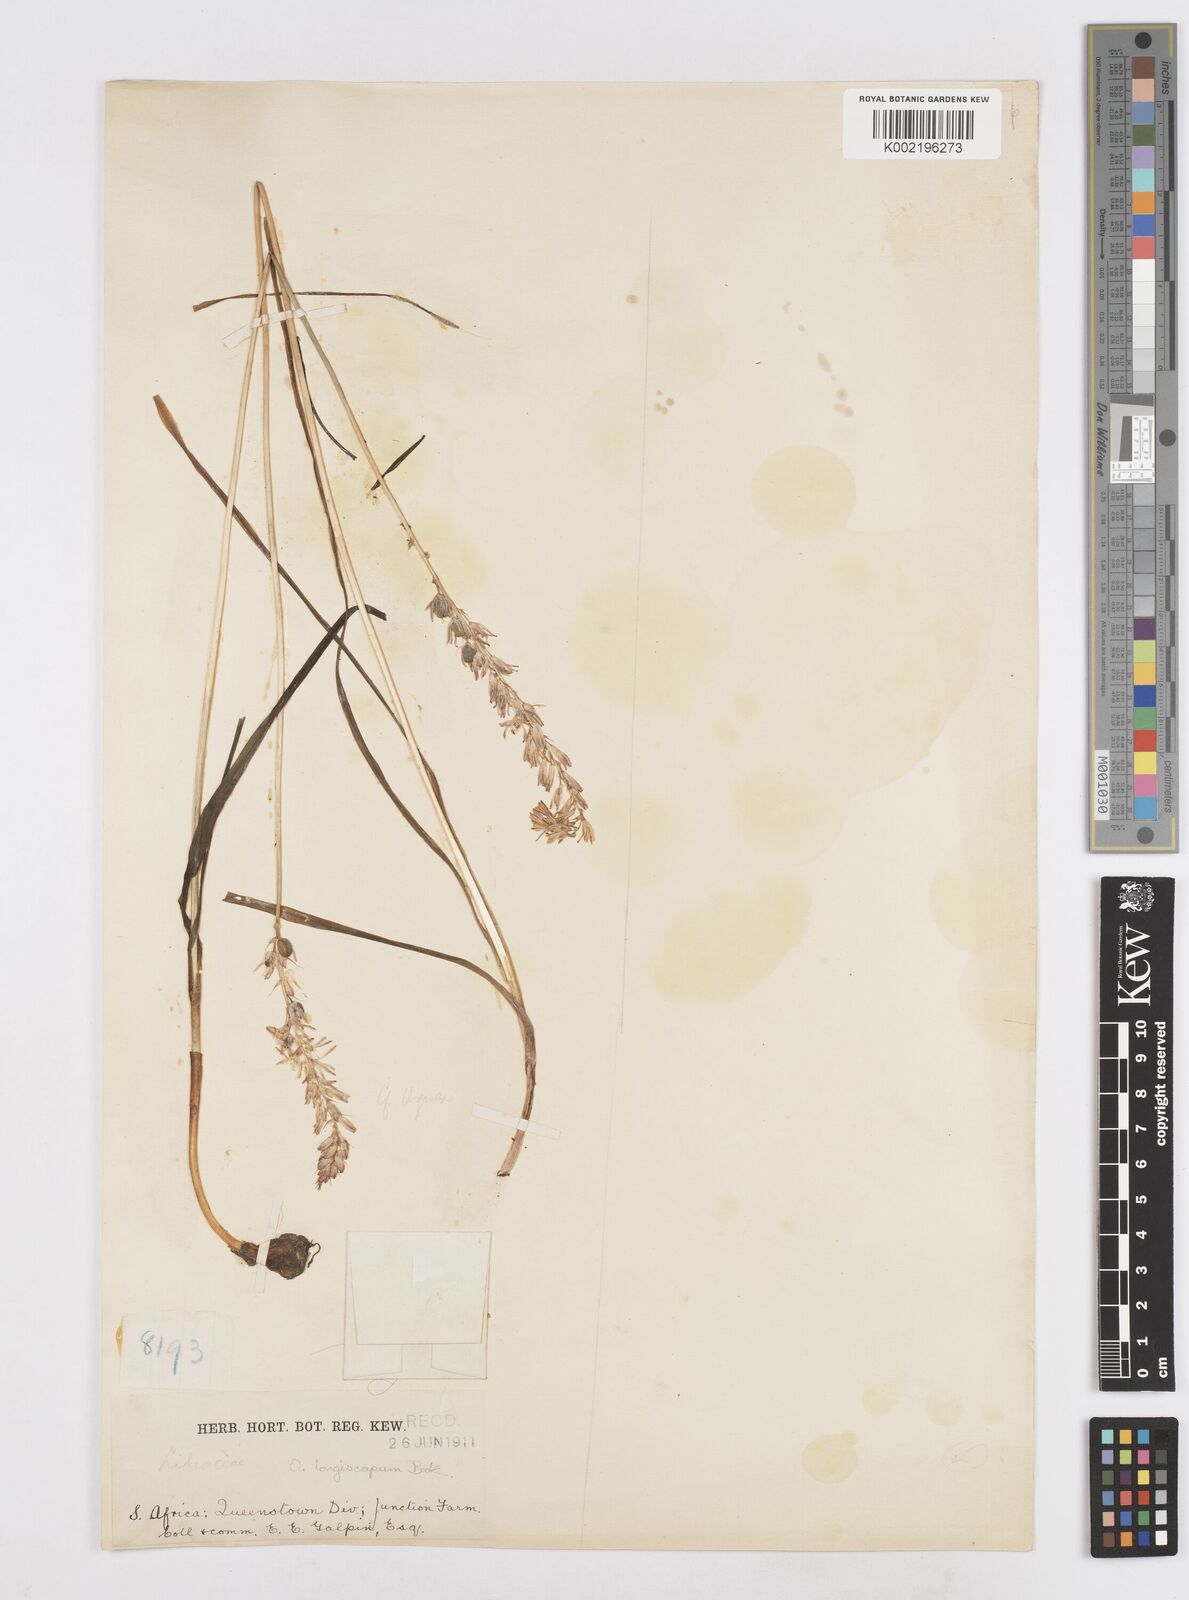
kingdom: Plantae
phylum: Tracheophyta
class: Liliopsida
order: Asparagales
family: Asparagaceae
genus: Ornithogalum
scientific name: Ornithogalum graminifolium
